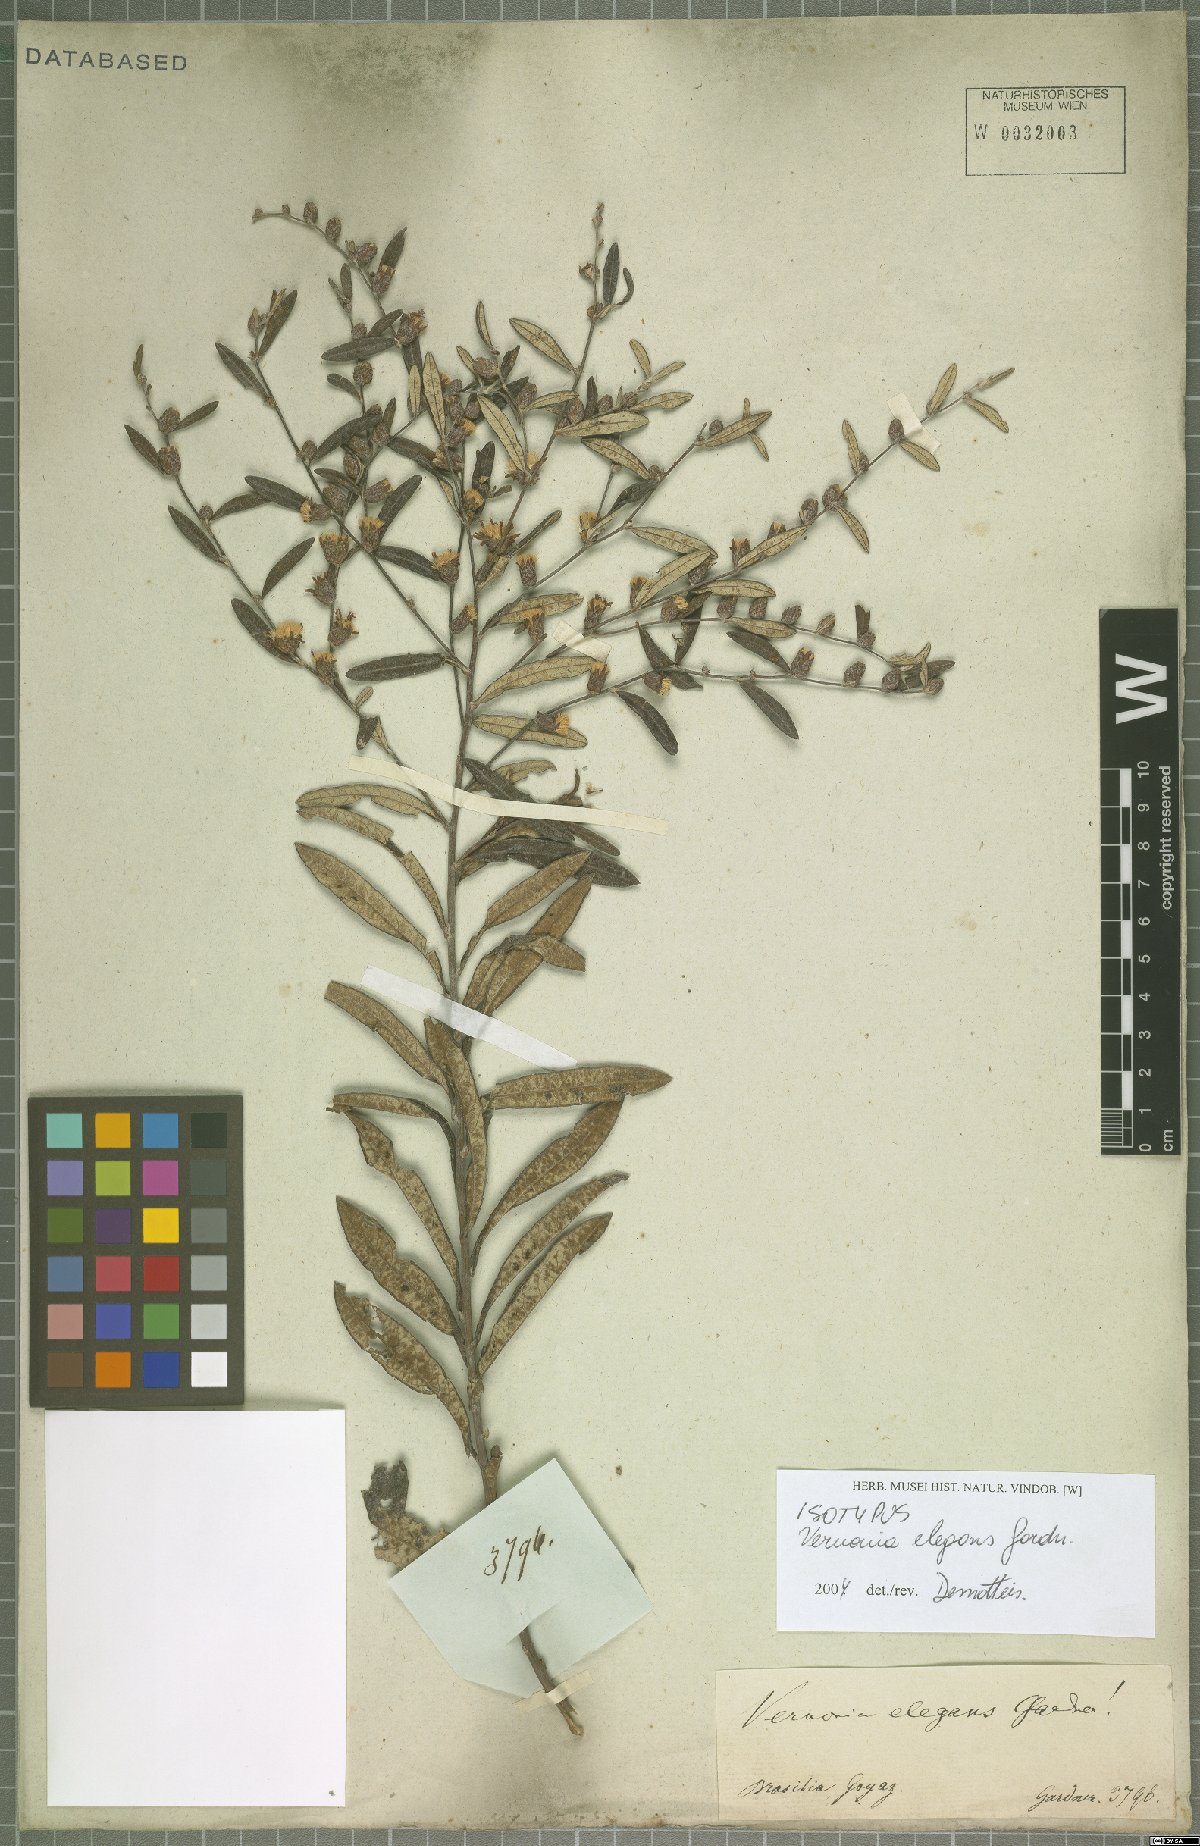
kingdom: Plantae
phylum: Tracheophyta
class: Magnoliopsida
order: Asterales
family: Asteraceae
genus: Lessingianthus
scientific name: Lessingianthus elegans
